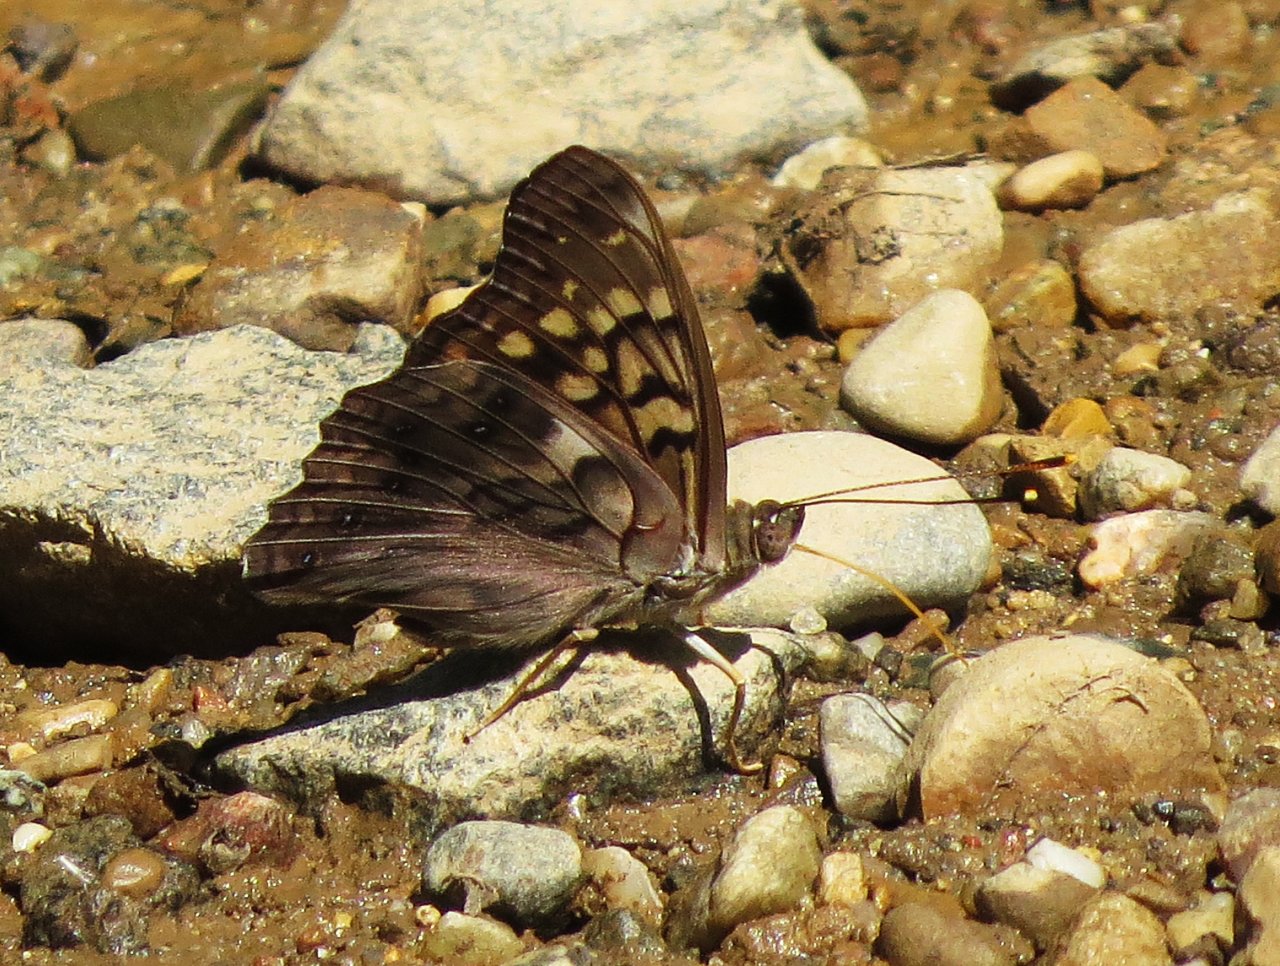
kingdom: Animalia
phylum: Arthropoda
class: Insecta
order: Lepidoptera
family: Nymphalidae
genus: Asterocampa
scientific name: Asterocampa clyton
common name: Tawny Emperor
